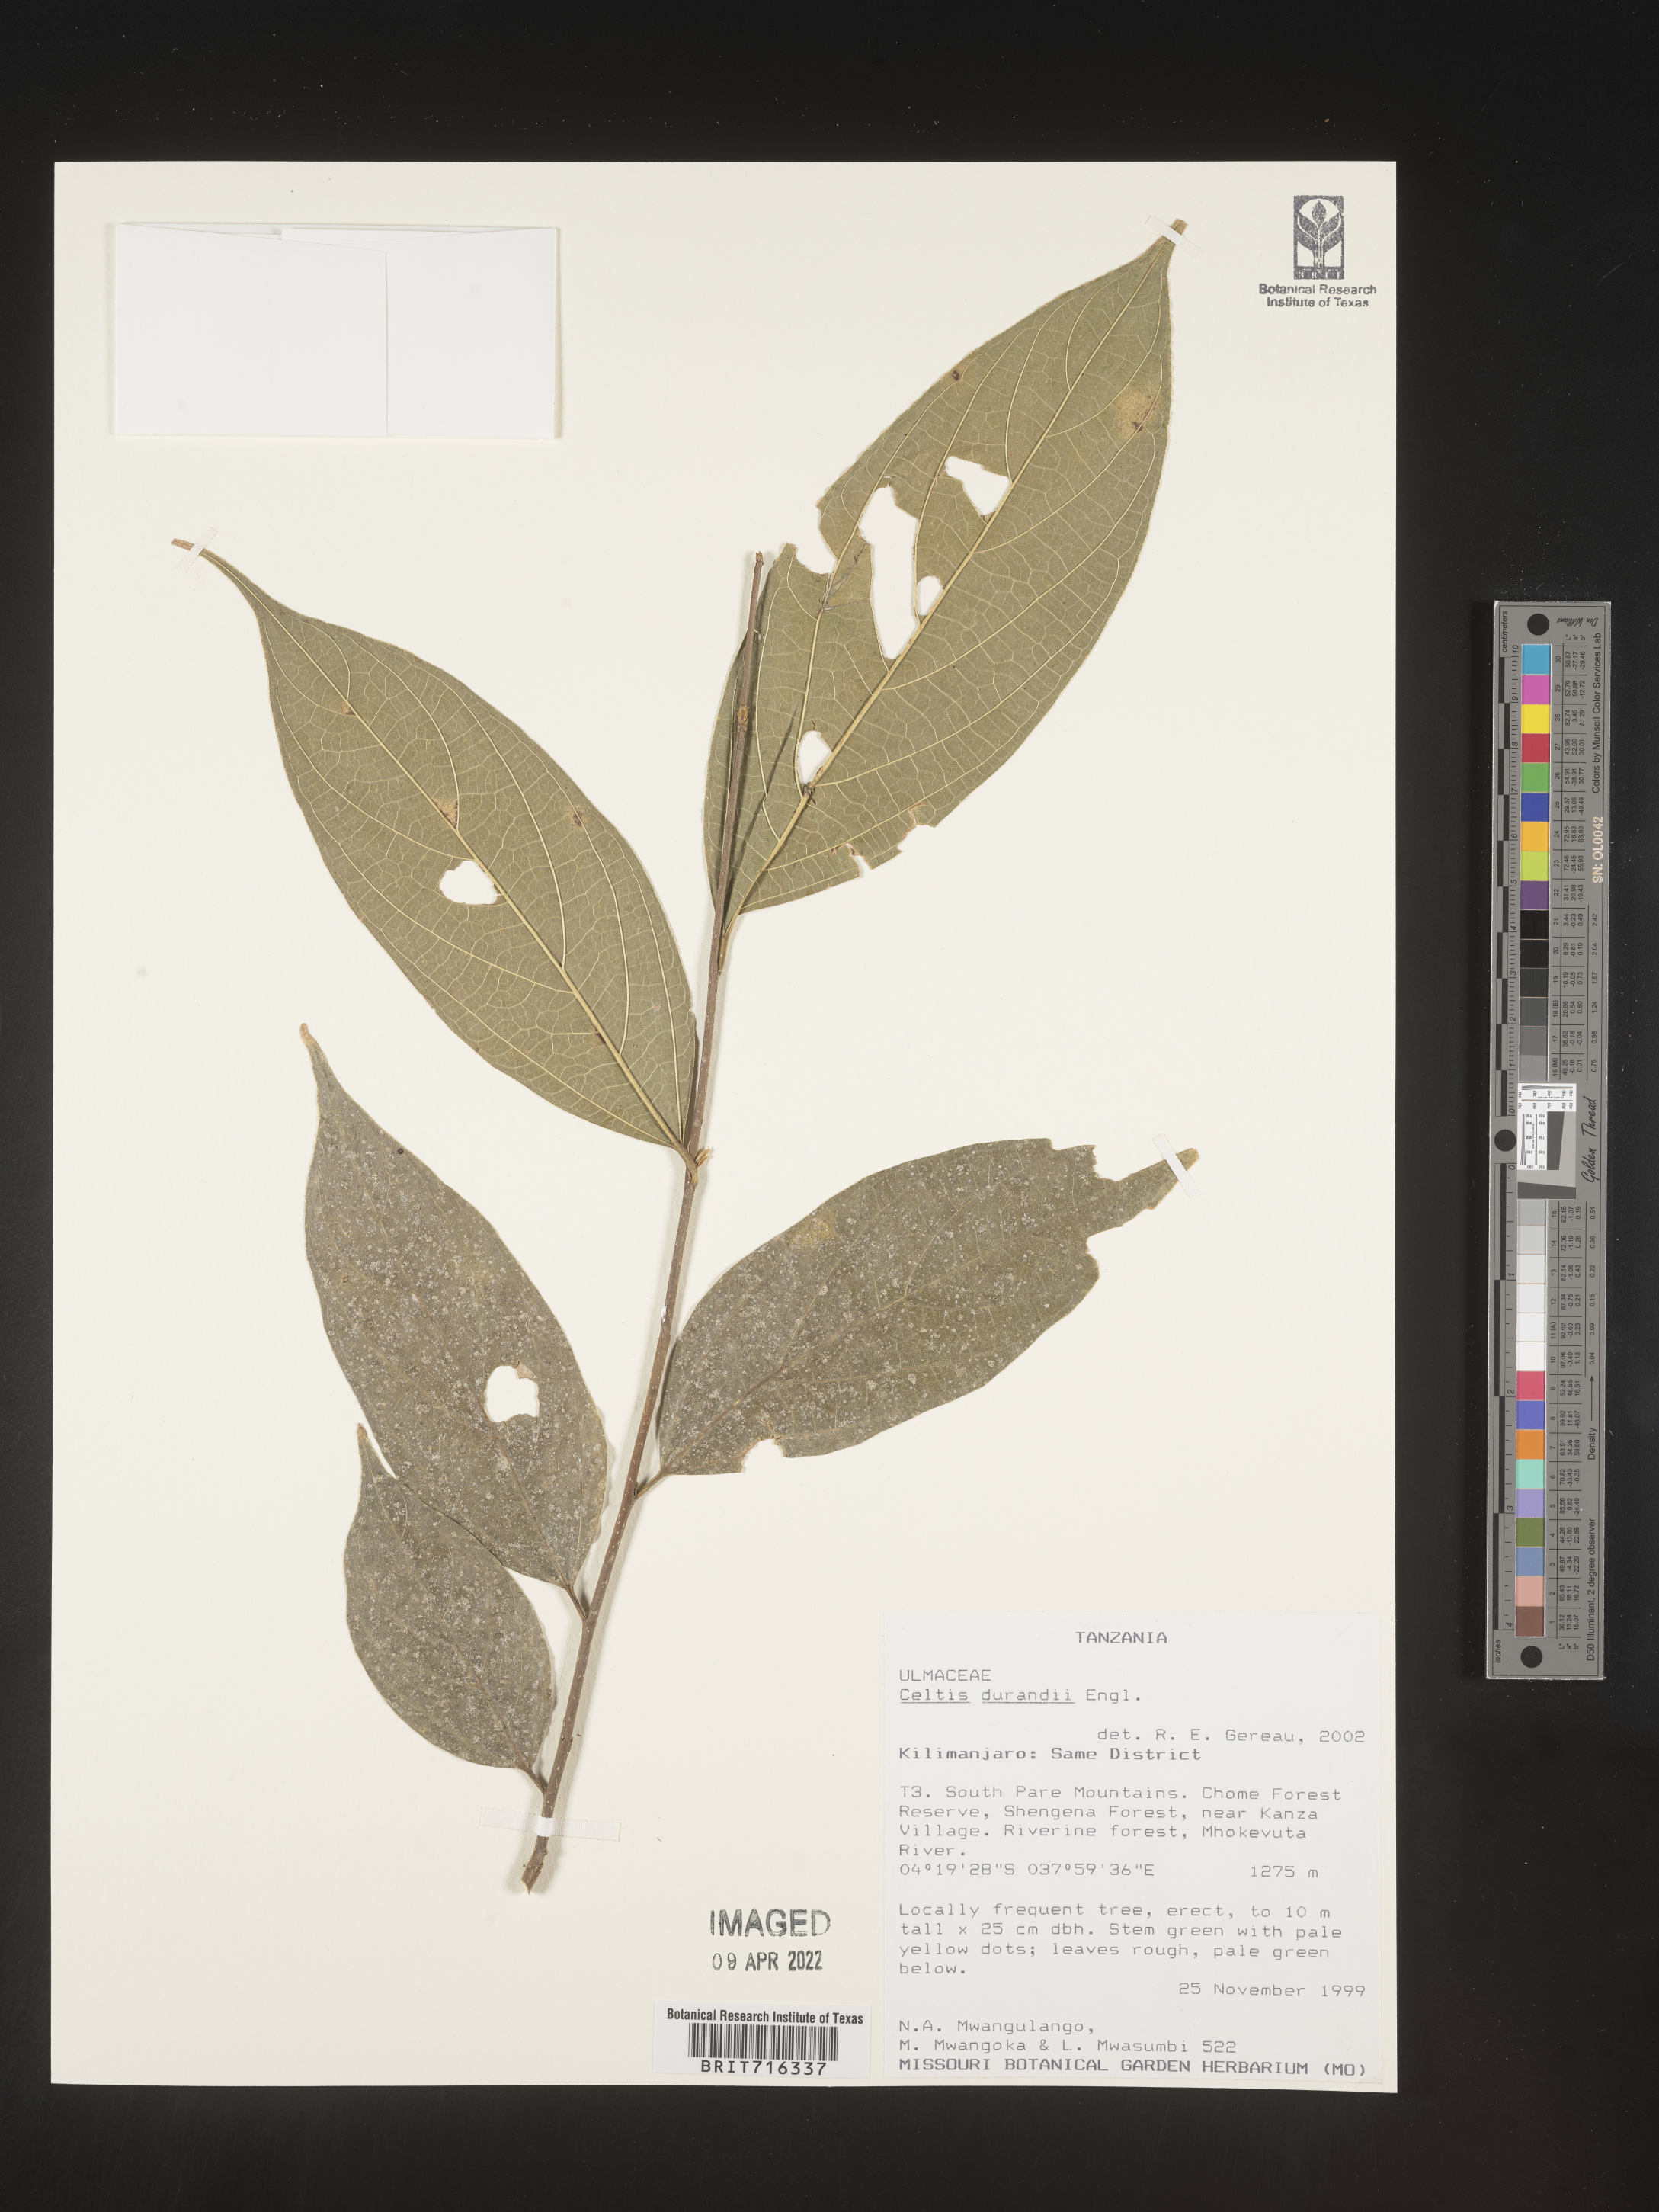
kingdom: Plantae
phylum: Tracheophyta
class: Magnoliopsida
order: Rosales
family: Cannabaceae
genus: Celtis
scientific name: Celtis
